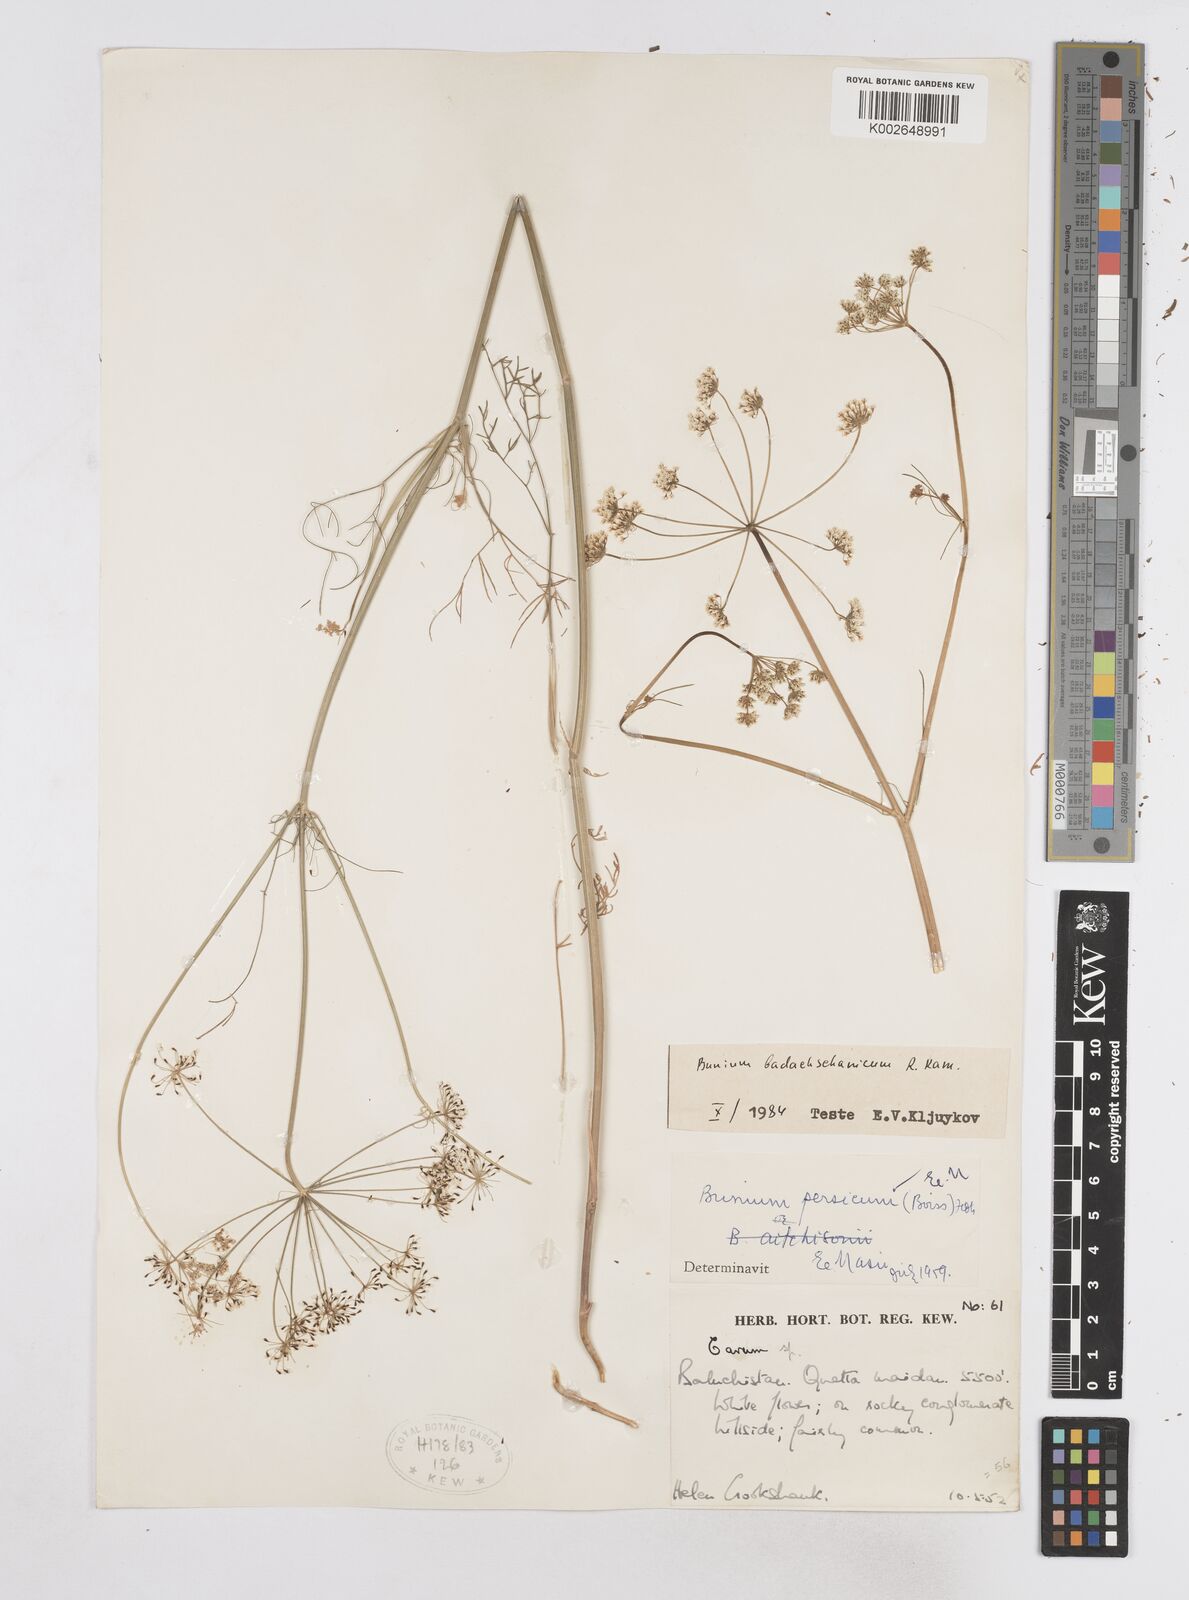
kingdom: Plantae
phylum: Tracheophyta
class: Magnoliopsida
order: Apiales
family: Apiaceae
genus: Elwendia
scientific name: Elwendia badachschanica
